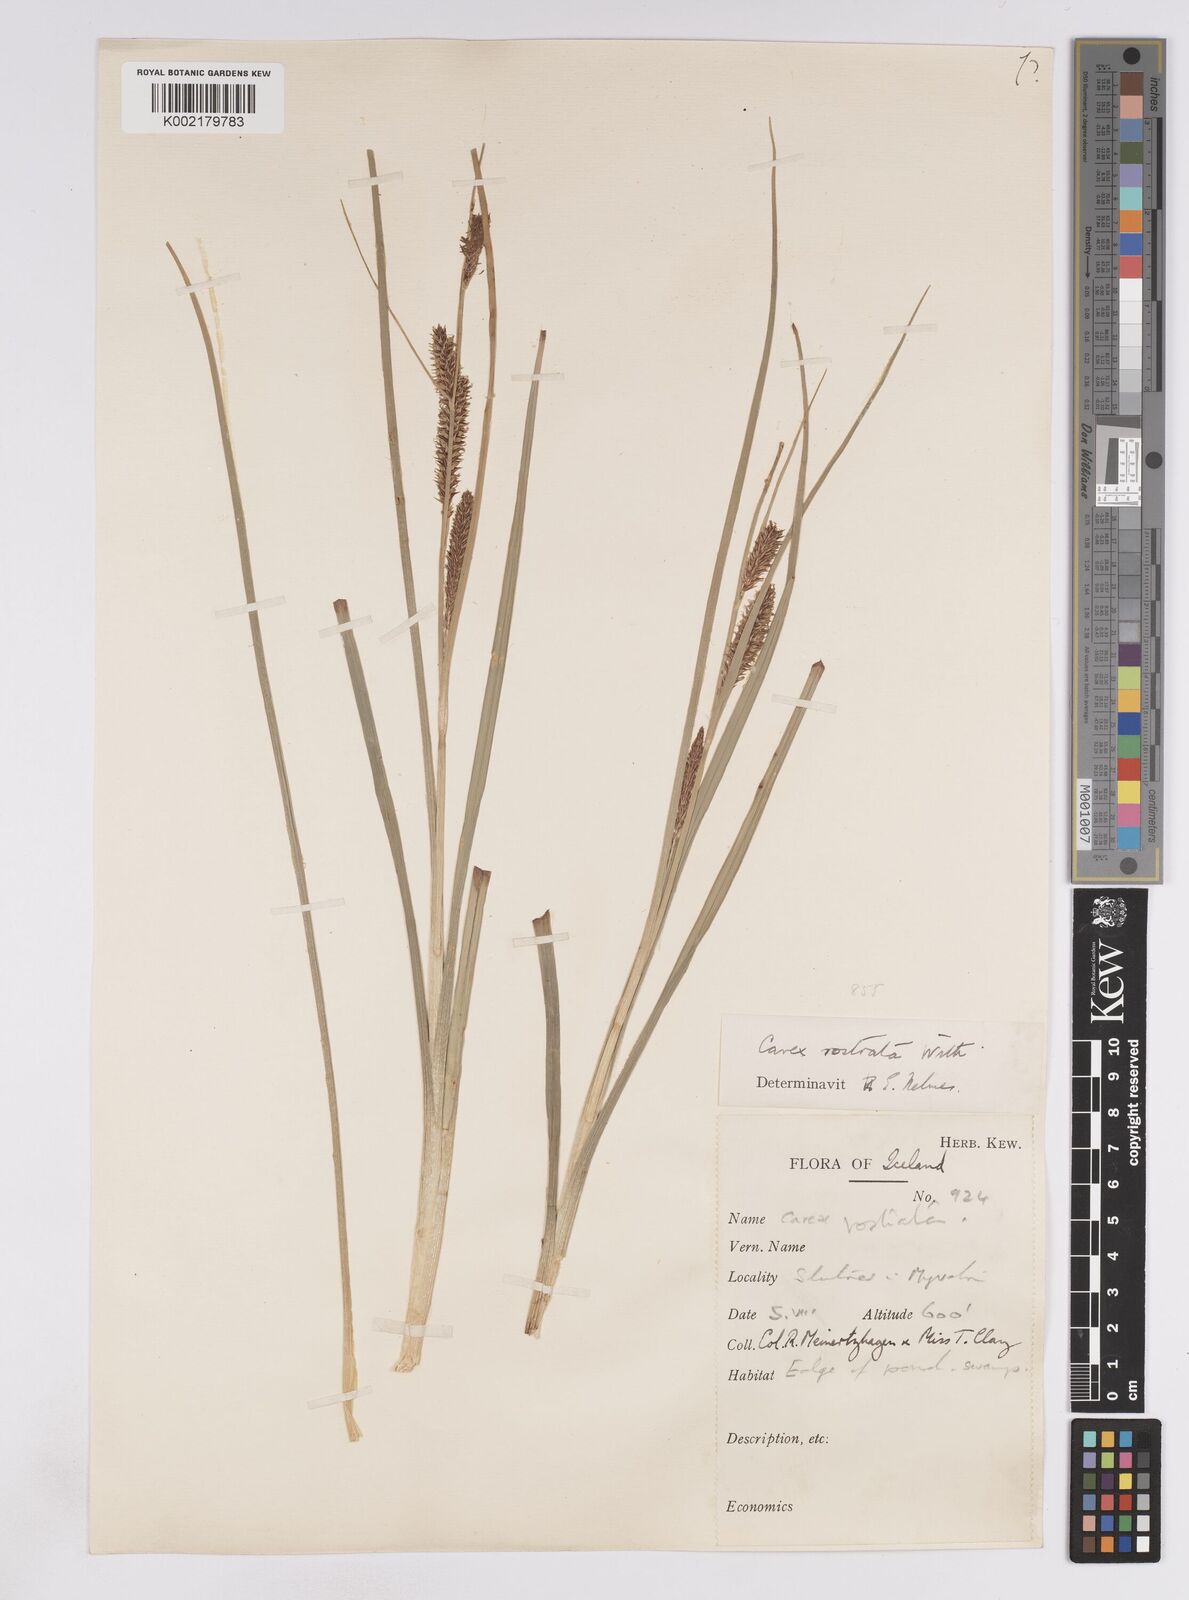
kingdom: Plantae
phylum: Tracheophyta
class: Liliopsida
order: Poales
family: Cyperaceae
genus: Carex
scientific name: Carex rostrata
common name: Bottle sedge
